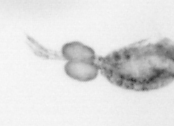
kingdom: Animalia
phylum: Arthropoda
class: Copepoda
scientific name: Copepoda
